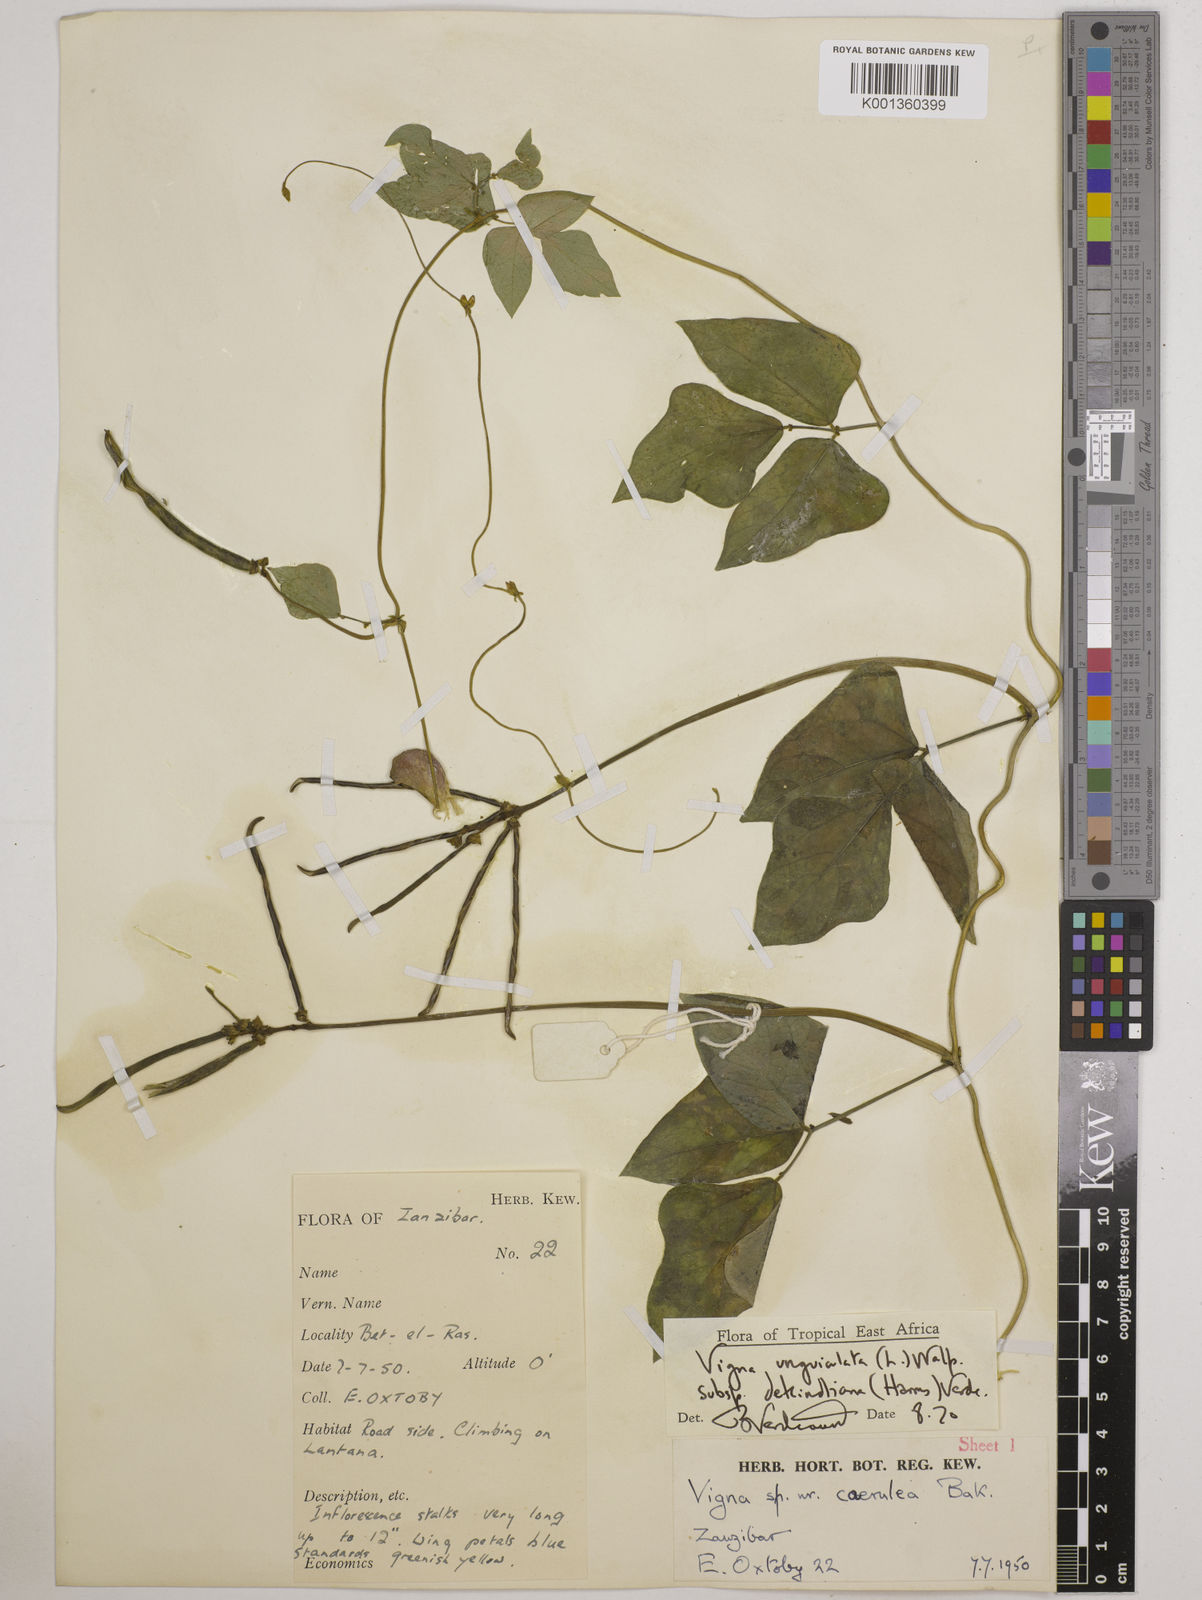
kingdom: Plantae
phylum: Tracheophyta
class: Magnoliopsida
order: Fabales
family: Fabaceae
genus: Vigna
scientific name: Vigna
